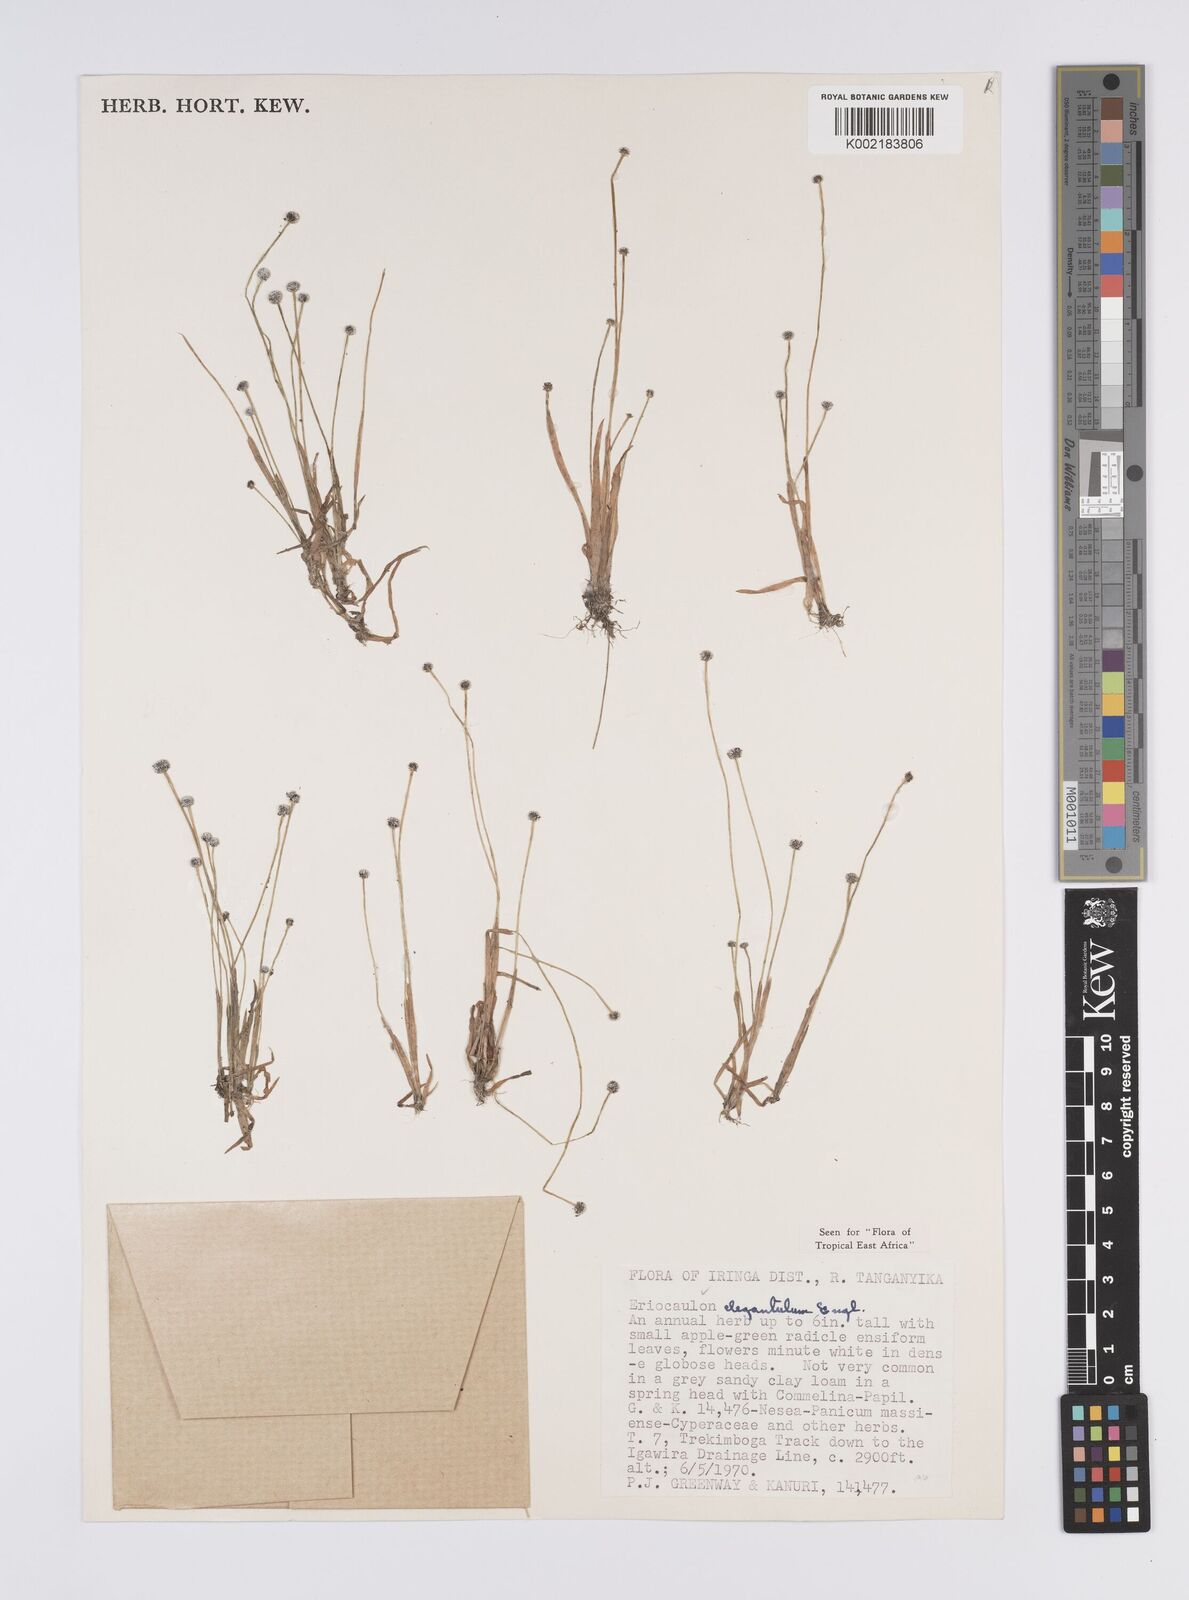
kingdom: Plantae
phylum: Tracheophyta
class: Liliopsida
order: Poales
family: Eriocaulaceae
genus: Eriocaulon
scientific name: Eriocaulon elegantulum
